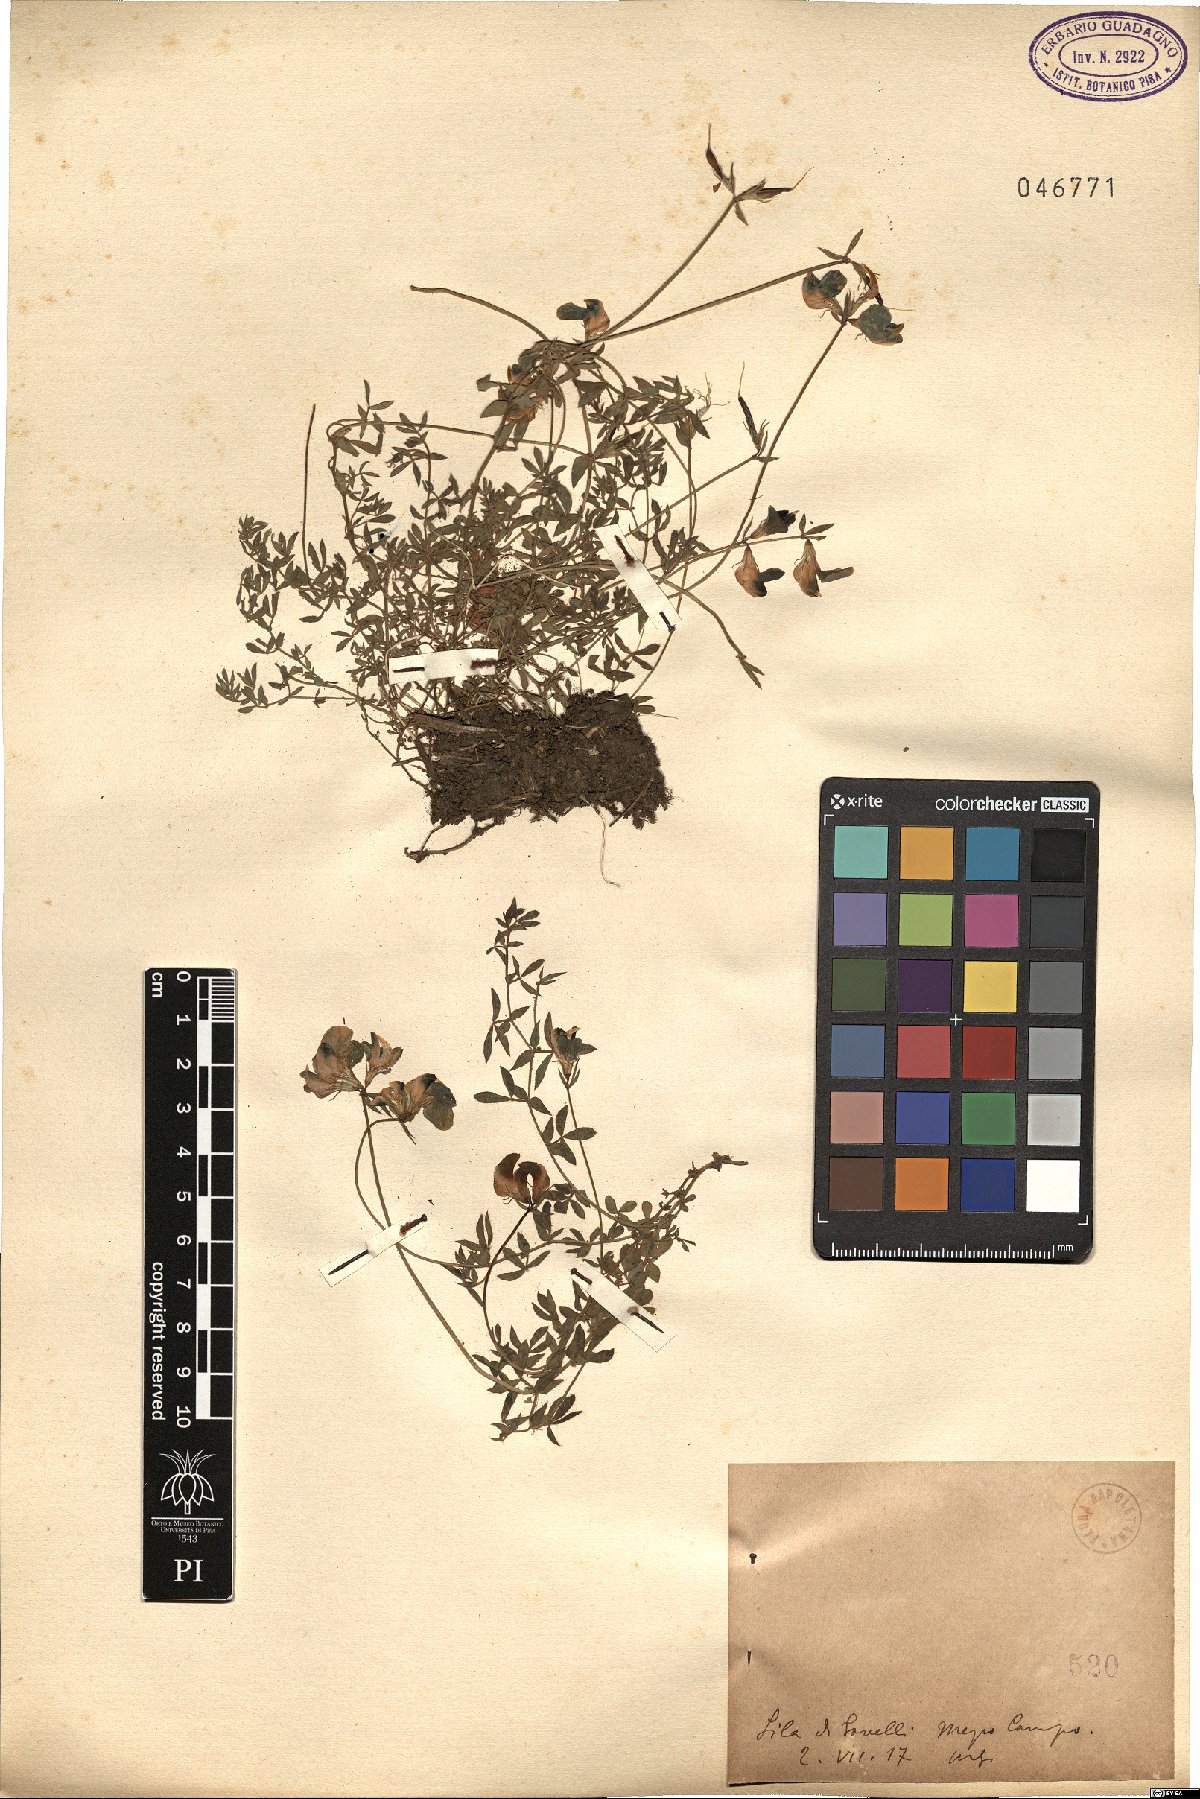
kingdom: Plantae
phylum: Tracheophyta
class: Magnoliopsida
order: Fabales
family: Fabaceae
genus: Lotus
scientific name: Lotus
